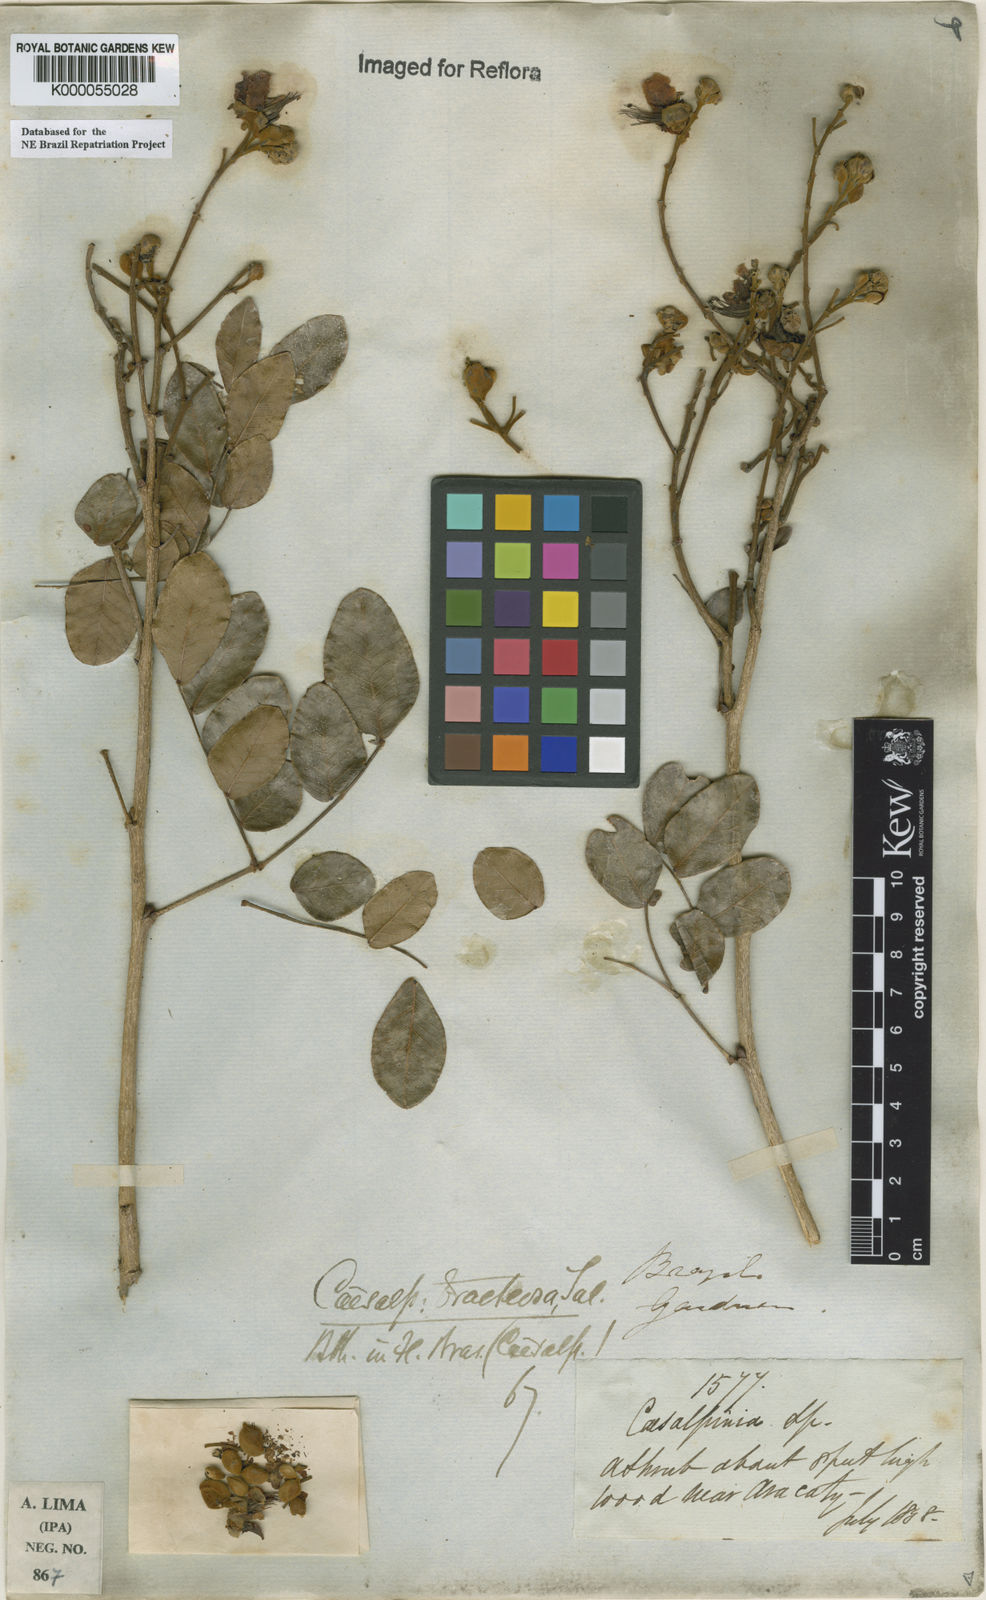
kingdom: Plantae
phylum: Tracheophyta
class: Magnoliopsida
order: Fabales
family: Fabaceae
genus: Cenostigma
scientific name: Cenostigma bracteosum
